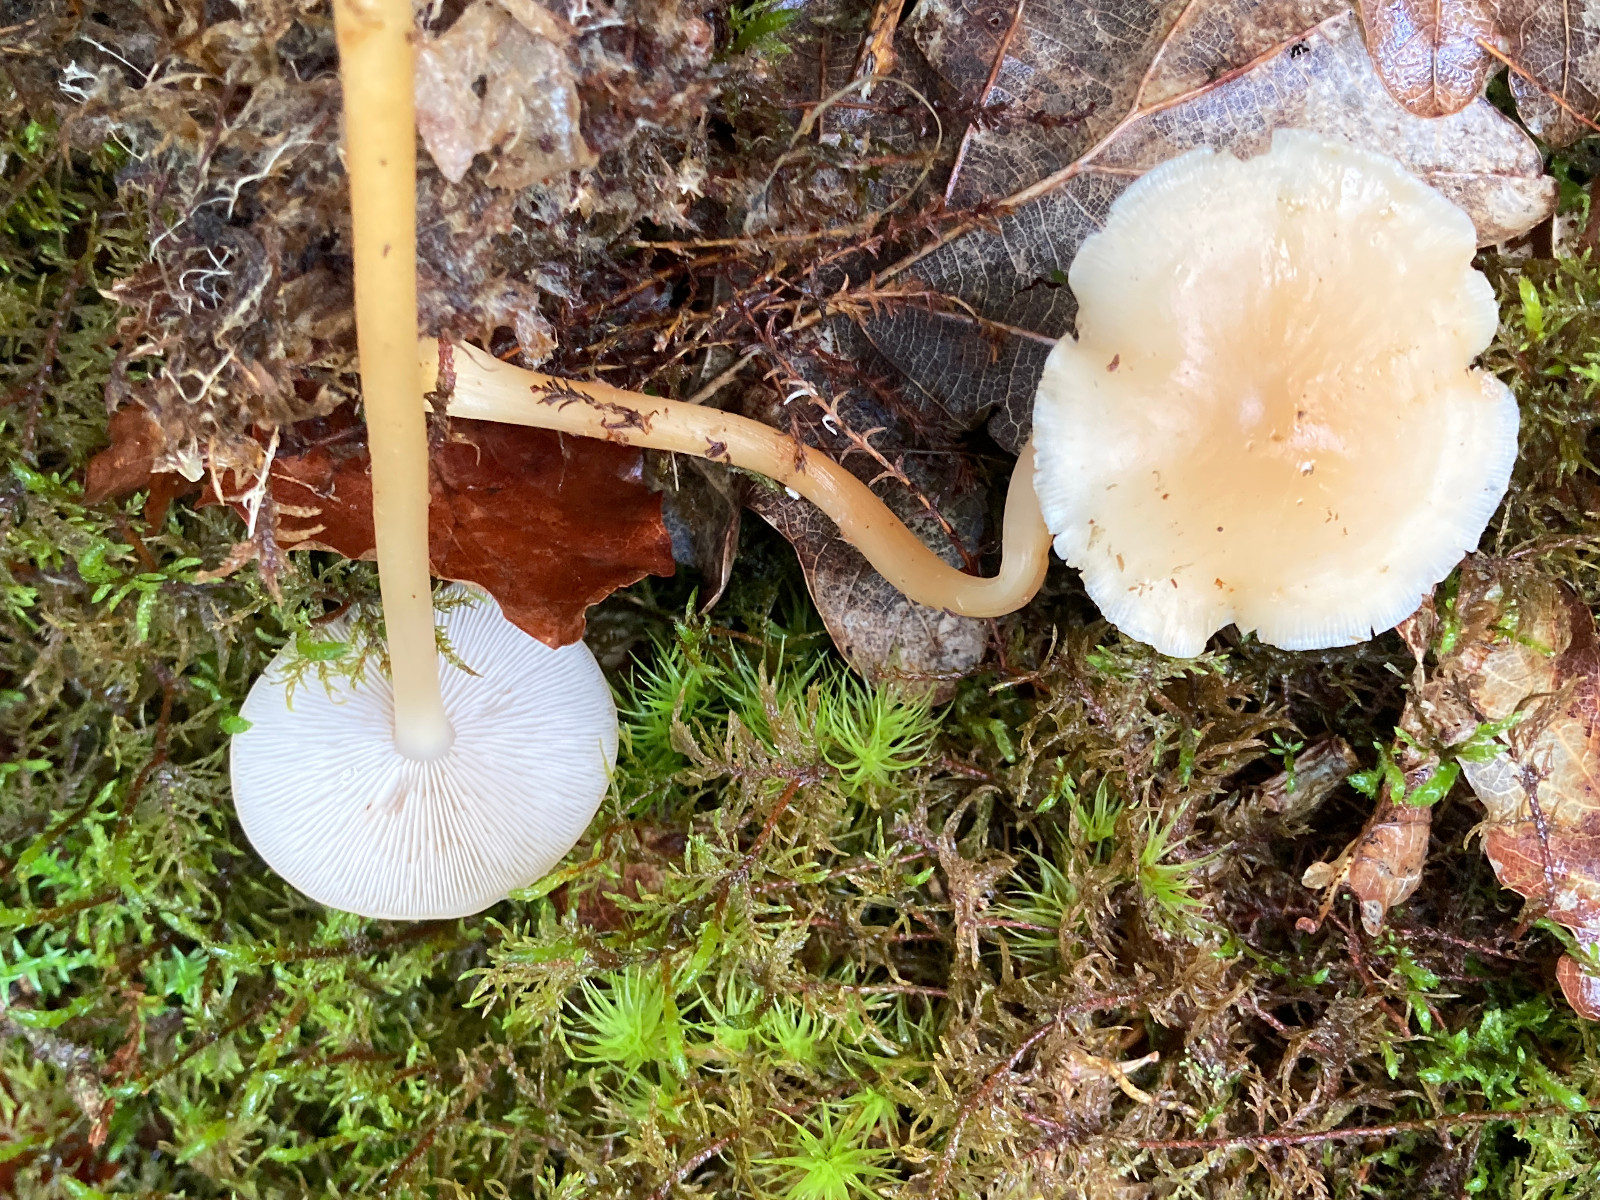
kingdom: Fungi
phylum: Basidiomycota
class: Agaricomycetes
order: Agaricales
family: Omphalotaceae
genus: Gymnopus
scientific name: Gymnopus
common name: fladhat
